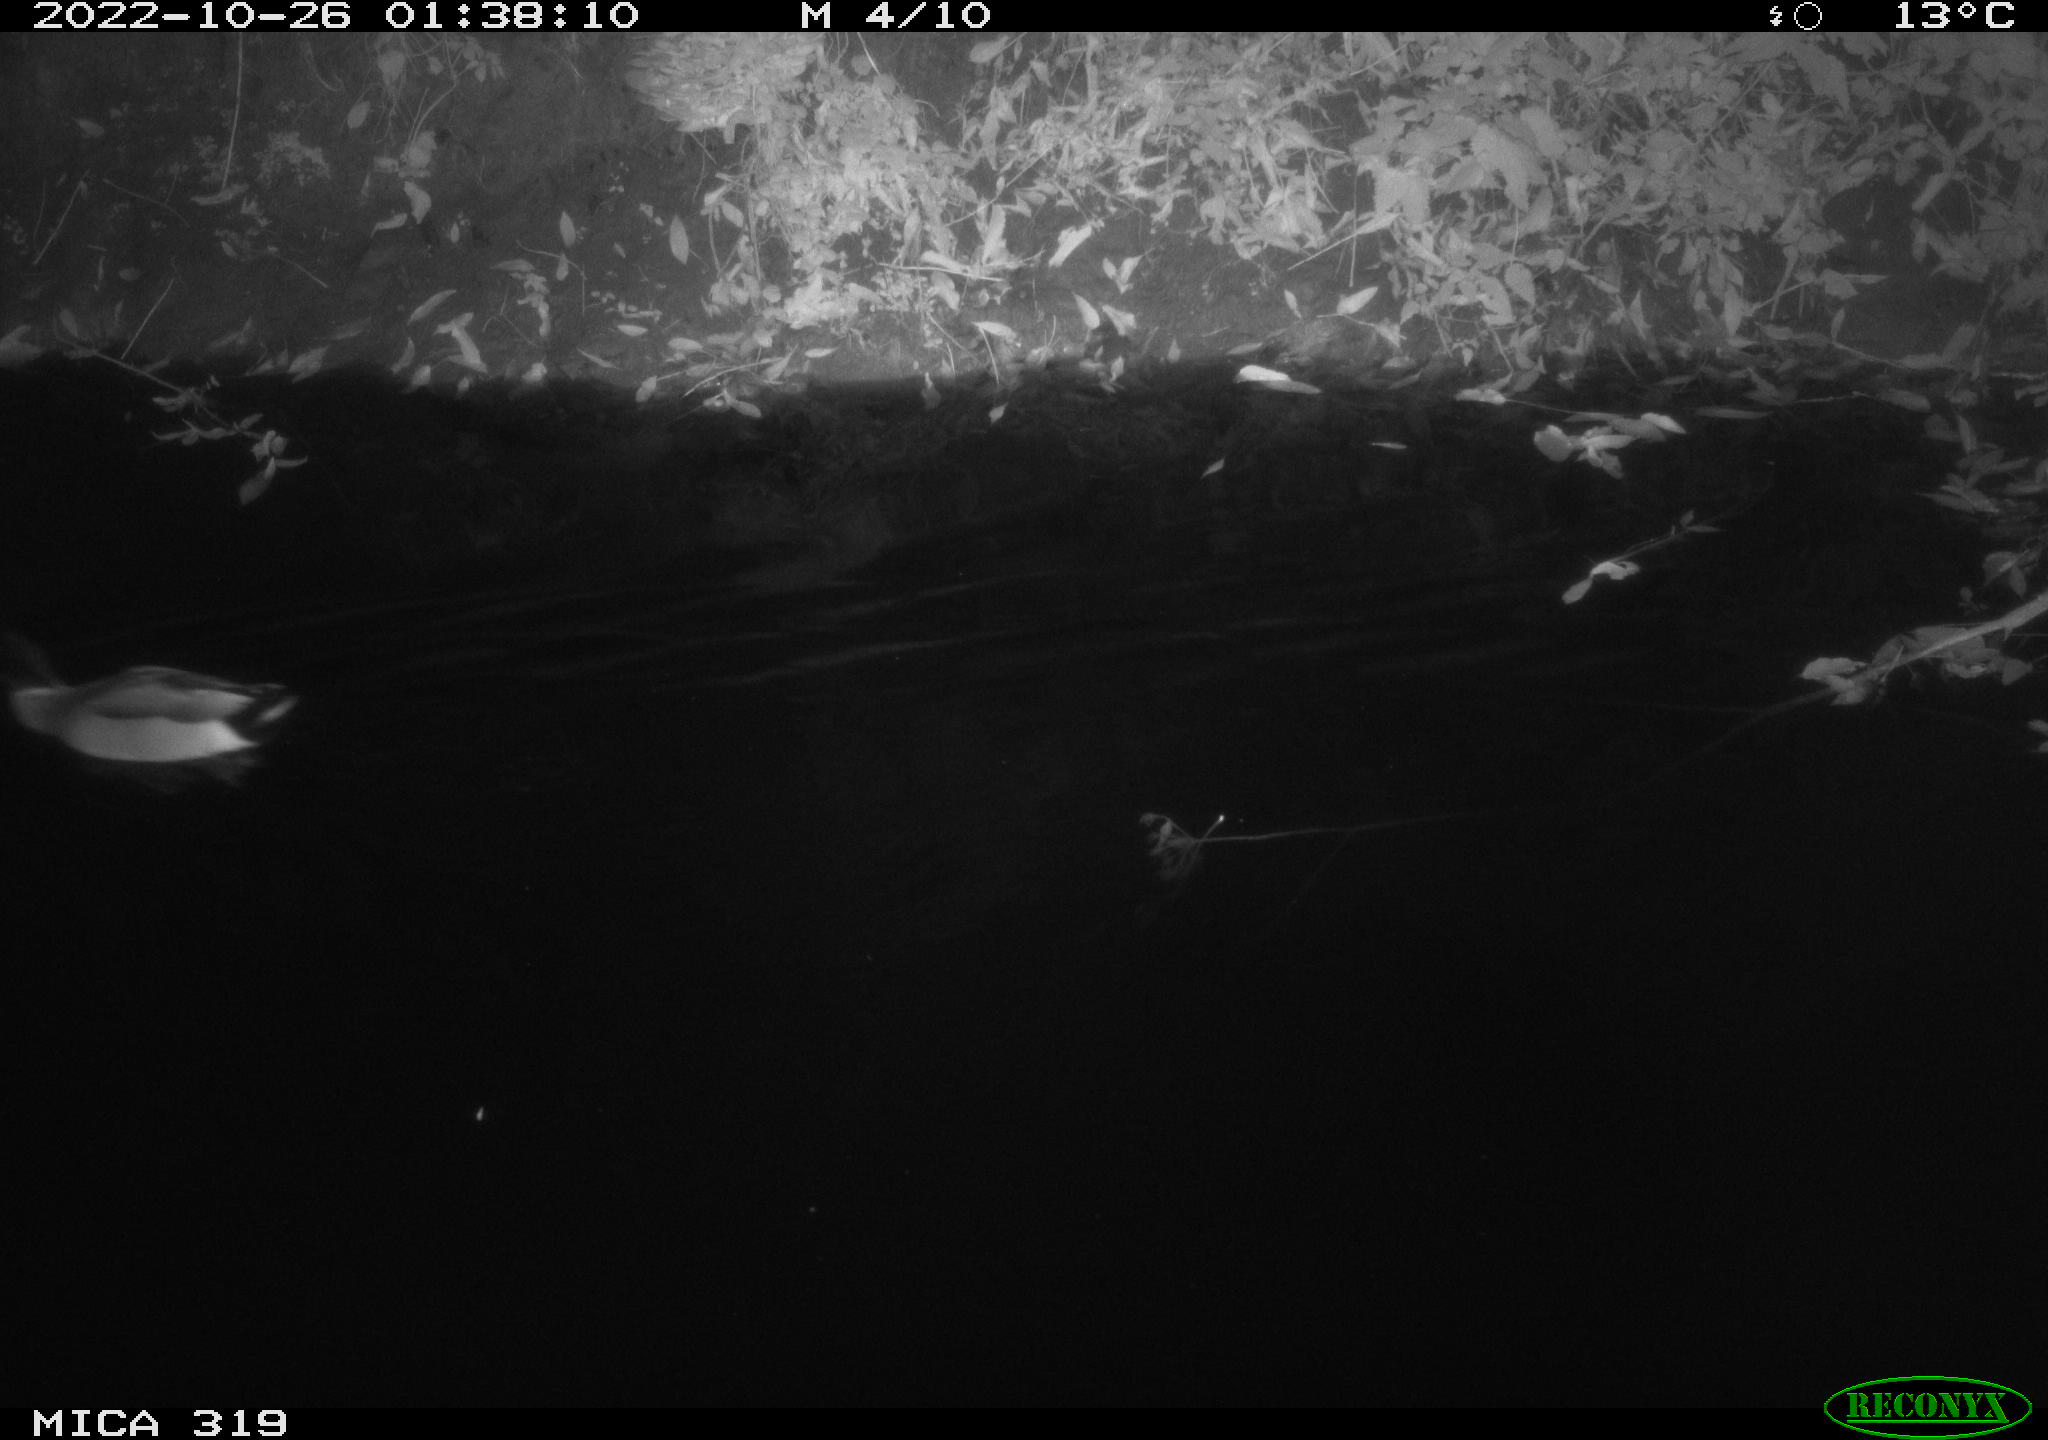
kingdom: Animalia
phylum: Chordata
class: Aves
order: Anseriformes
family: Anatidae
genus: Anas
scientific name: Anas
